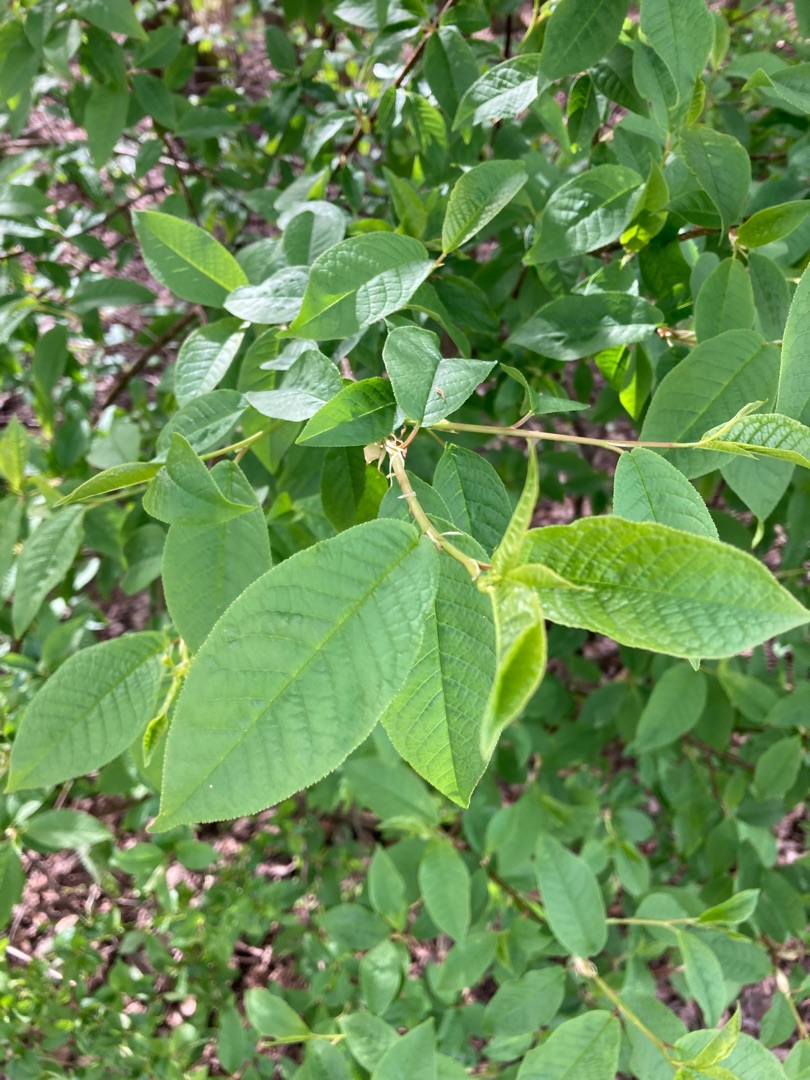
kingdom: Plantae
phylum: Tracheophyta
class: Magnoliopsida
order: Rosales
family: Rosaceae
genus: Prunus
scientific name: Prunus padus
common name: Almindelig hæg
